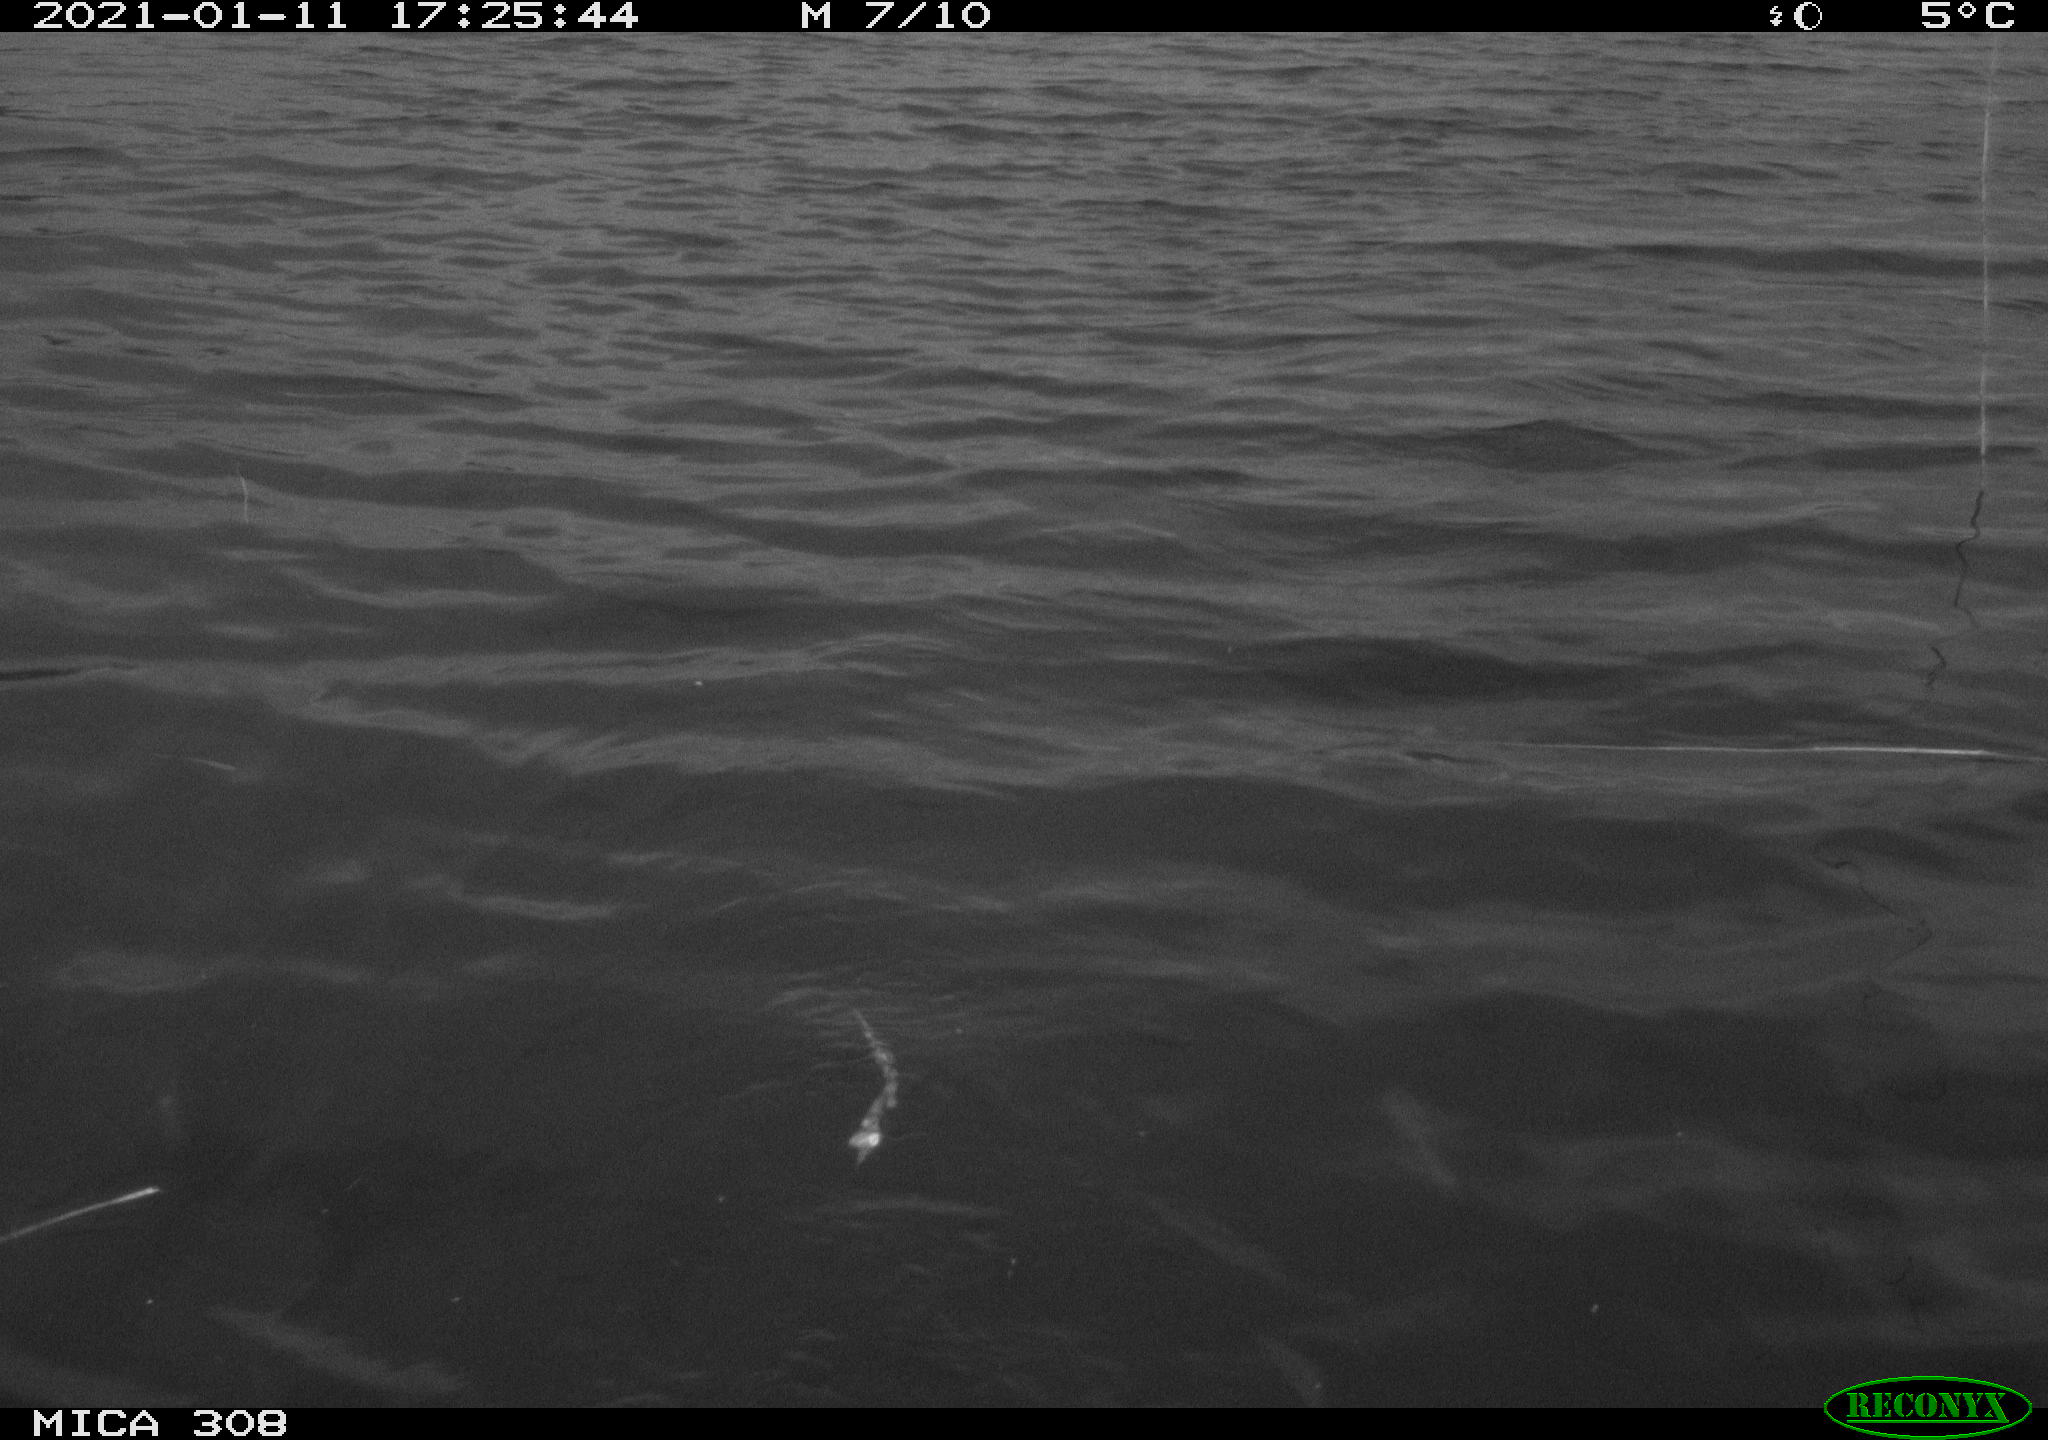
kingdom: Animalia
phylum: Chordata
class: Aves
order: Anseriformes
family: Anatidae
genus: Anas
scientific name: Anas platyrhynchos
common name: Mallard
